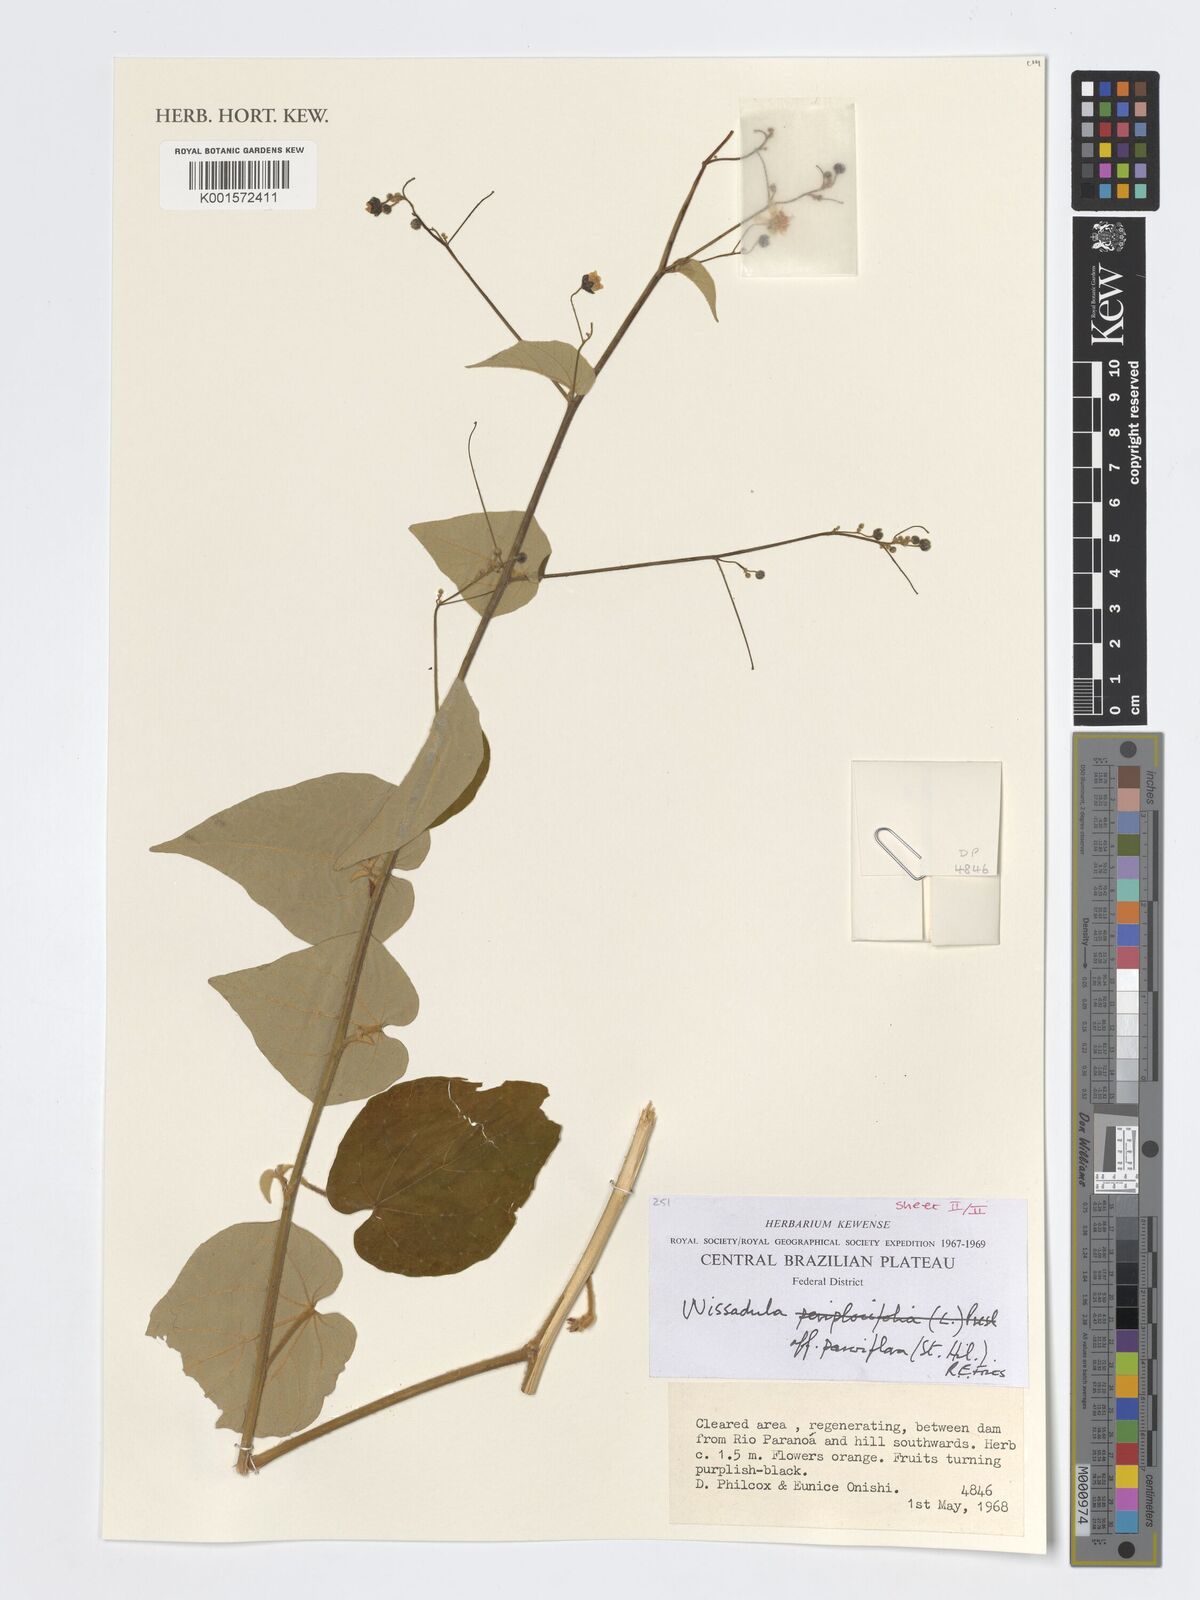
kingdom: Plantae
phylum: Tracheophyta
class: Magnoliopsida
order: Malvales
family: Malvaceae
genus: Wissadula
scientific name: Wissadula parvifolia
